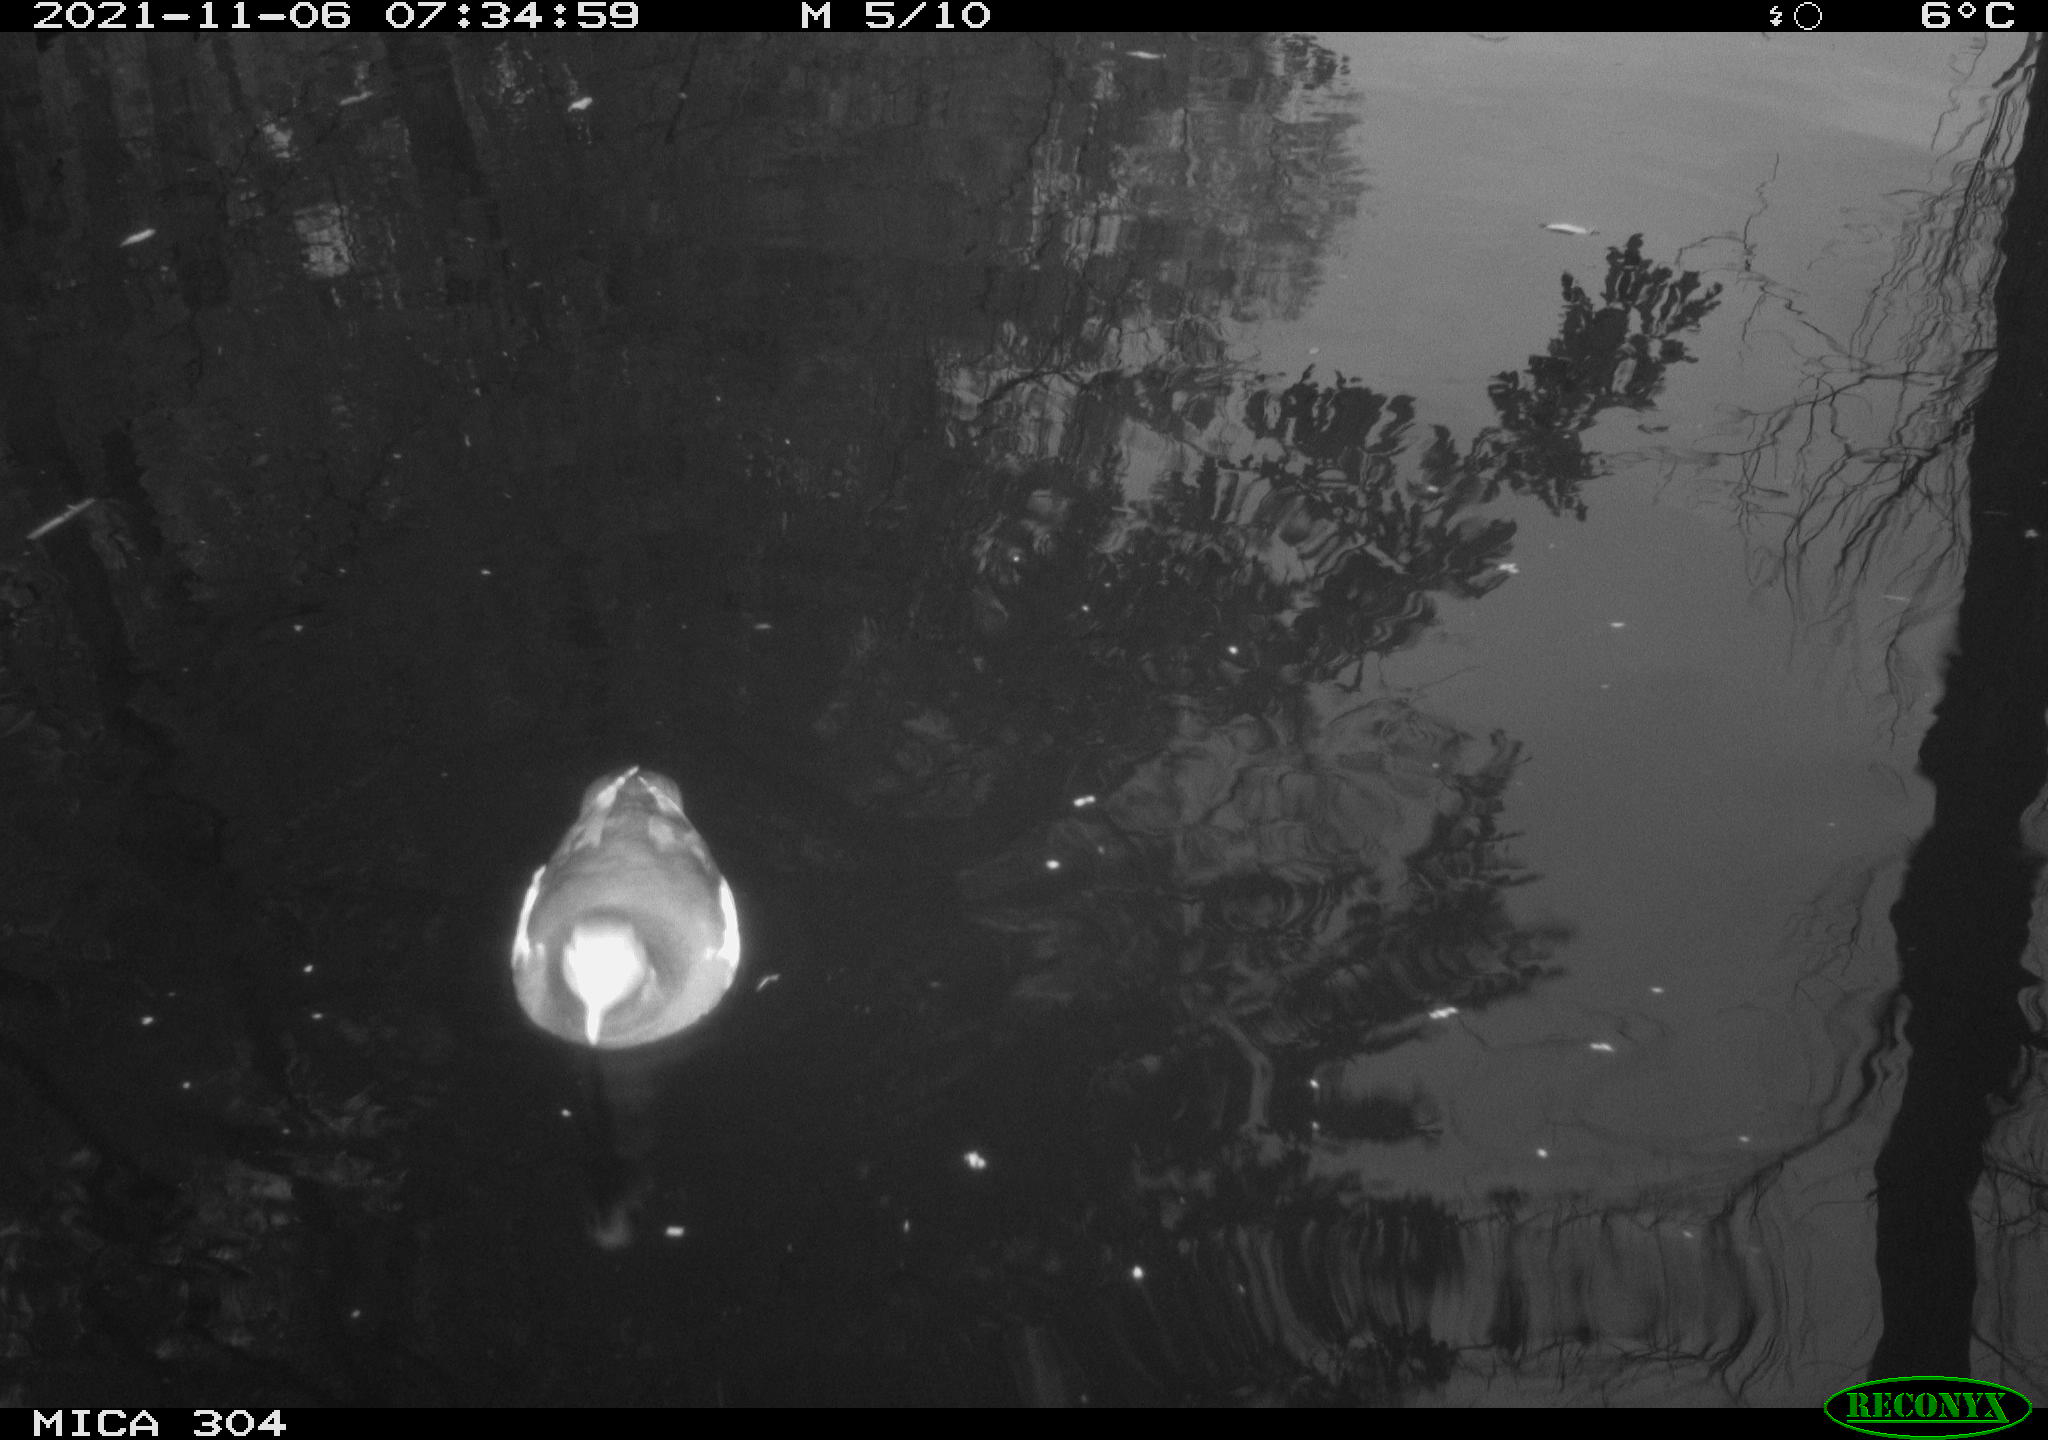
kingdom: Animalia
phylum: Chordata
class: Aves
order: Gruiformes
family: Rallidae
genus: Fulica
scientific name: Fulica atra
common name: Eurasian coot
